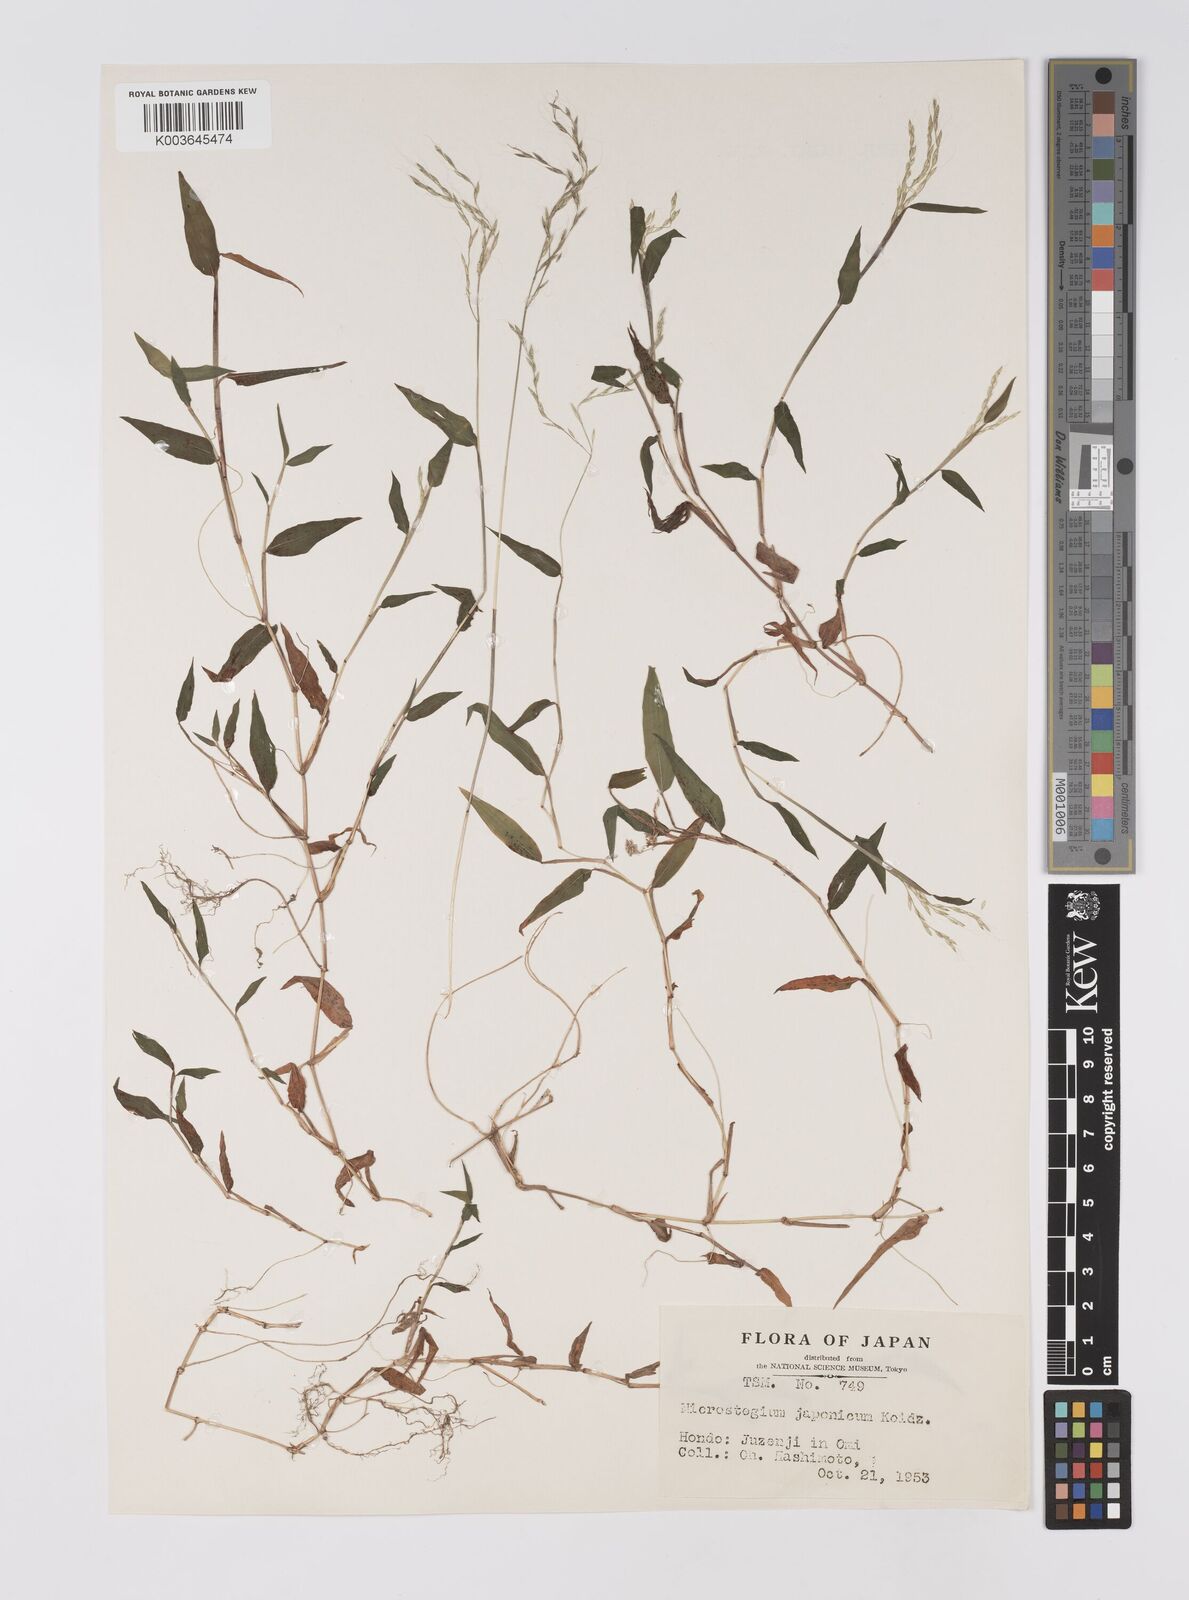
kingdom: Plantae
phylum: Tracheophyta
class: Liliopsida
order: Poales
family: Poaceae
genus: Microstegium
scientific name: Microstegium japonicum
